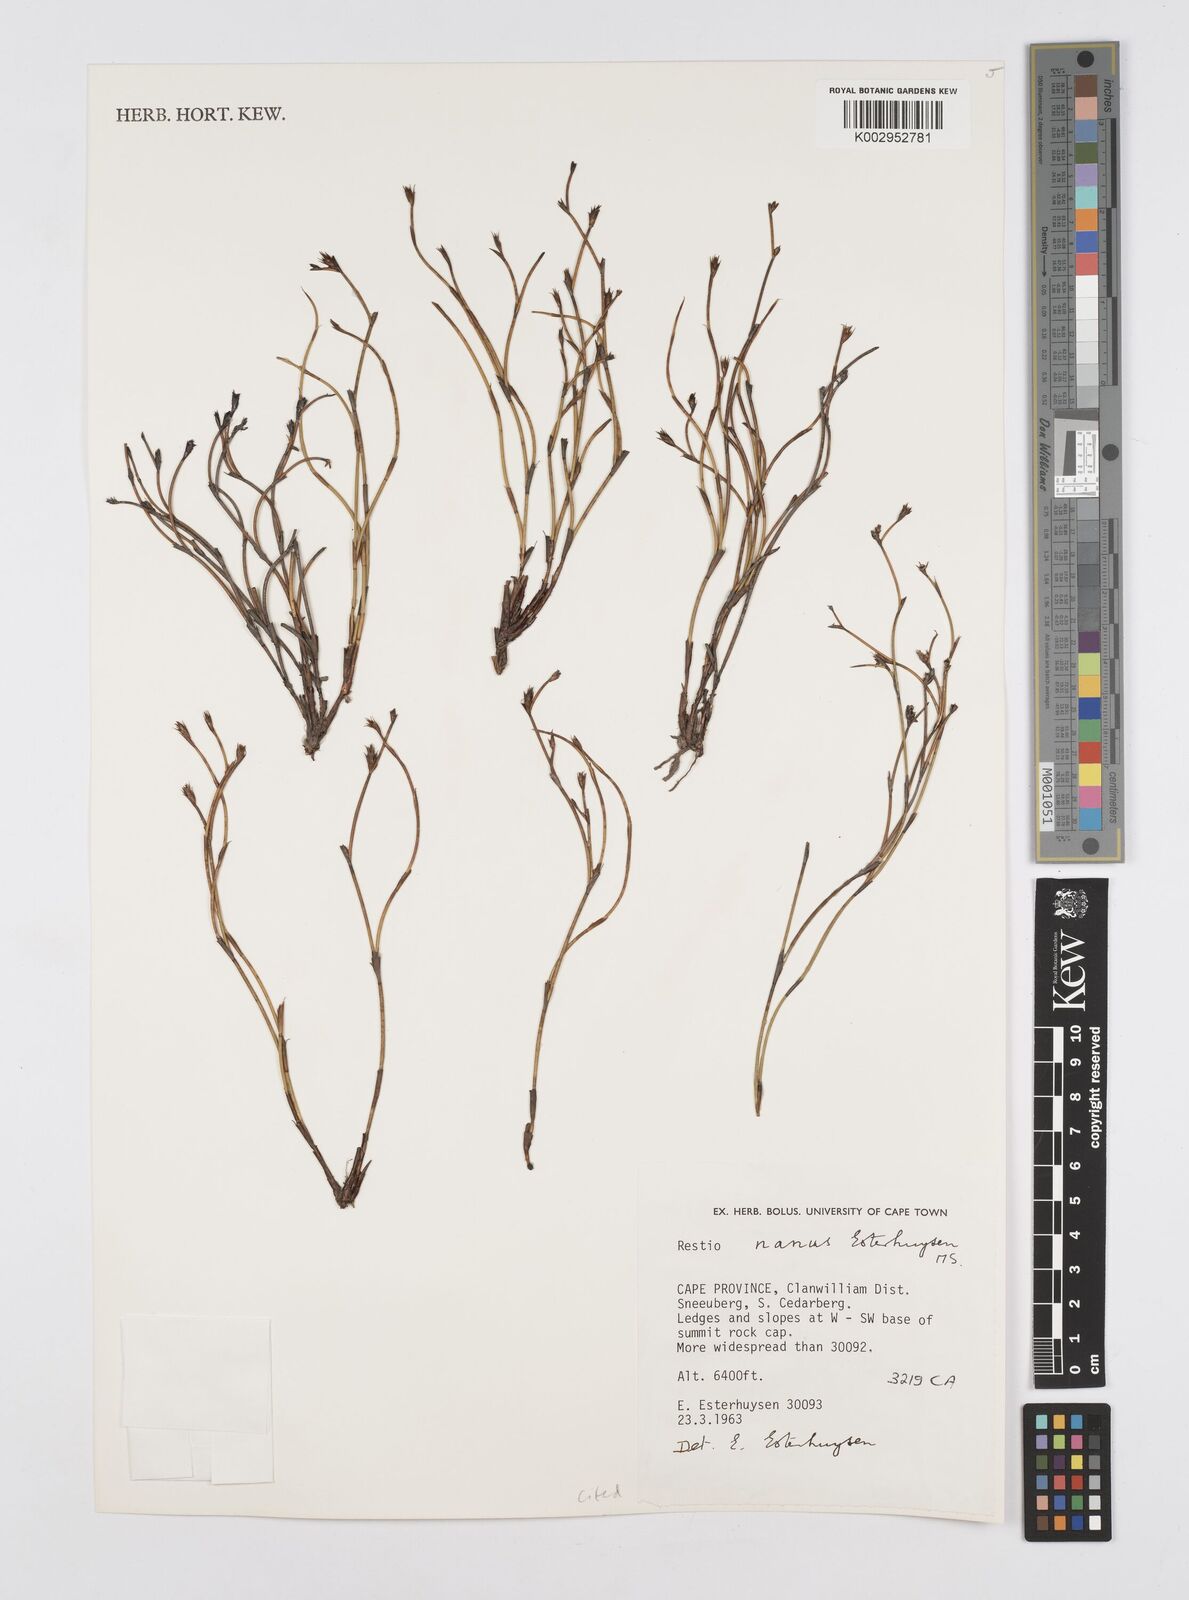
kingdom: Plantae
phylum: Tracheophyta
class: Liliopsida
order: Poales
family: Restionaceae
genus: Restio
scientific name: Restio nanus
